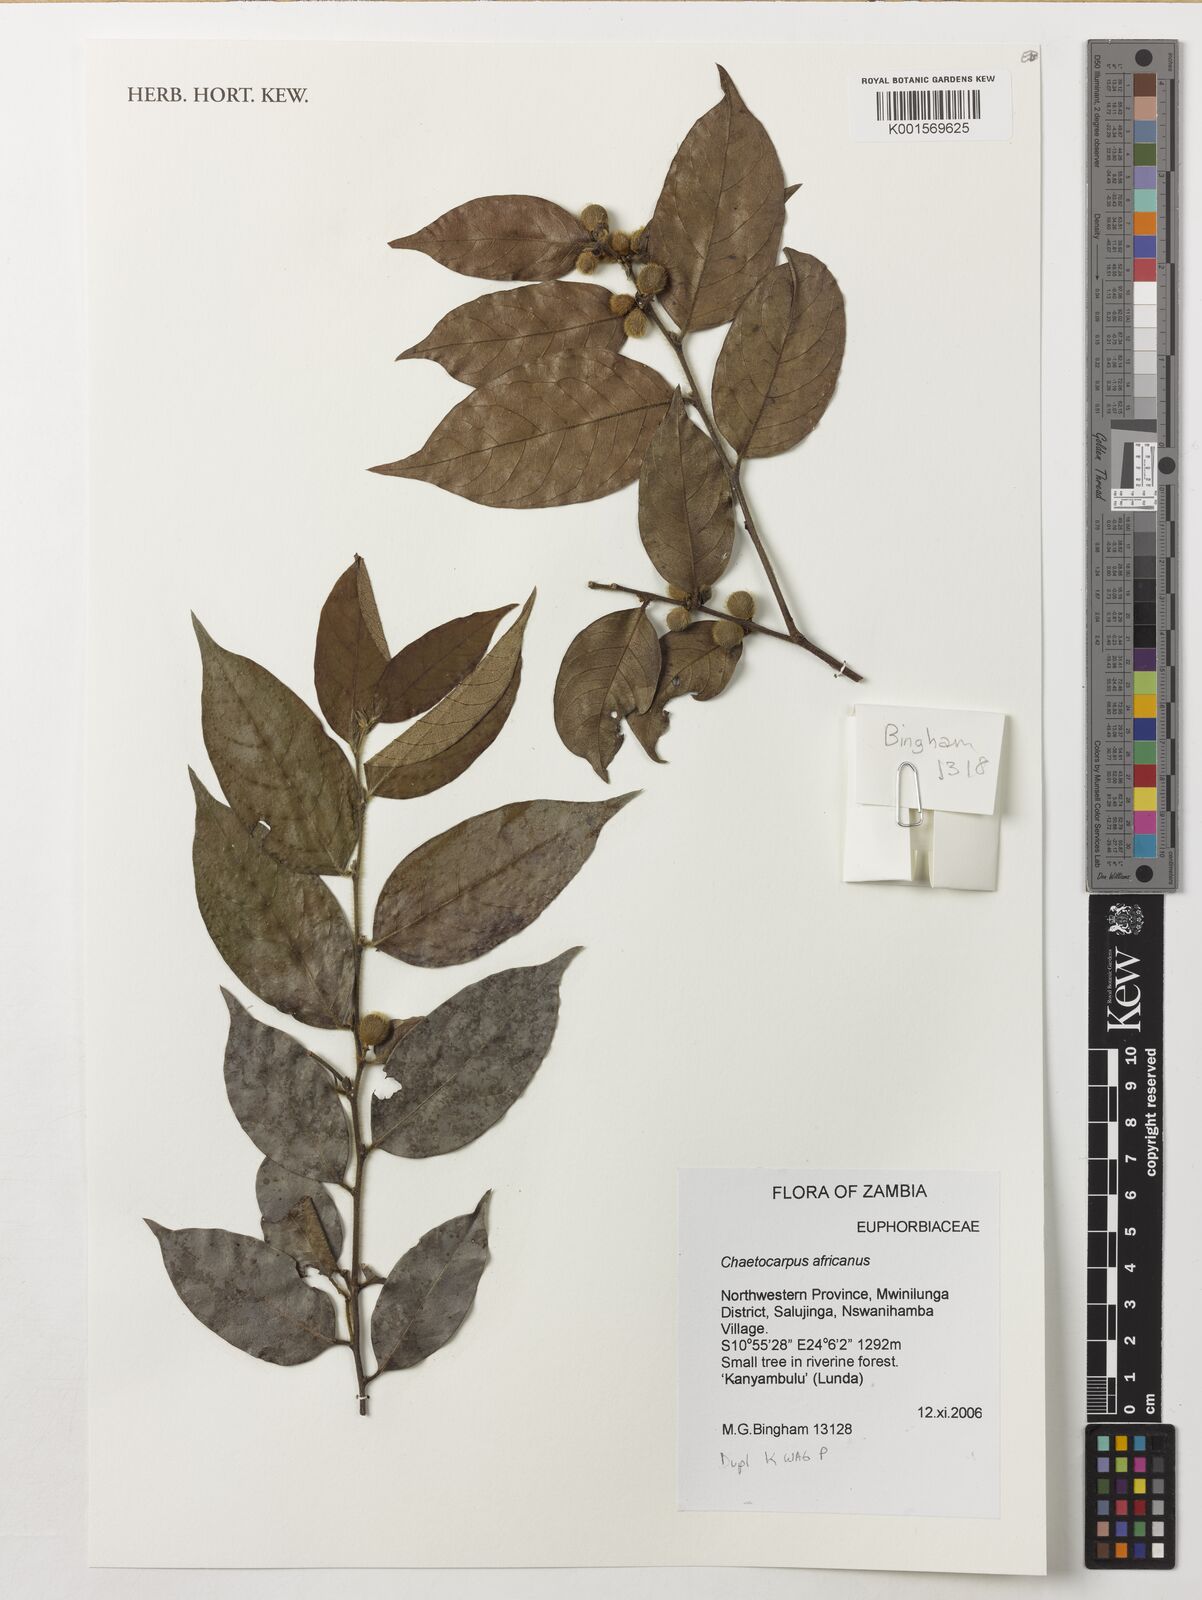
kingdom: Plantae
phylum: Tracheophyta
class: Magnoliopsida
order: Malpighiales
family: Peraceae
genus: Chaetocarpus
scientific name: Chaetocarpus africanus
